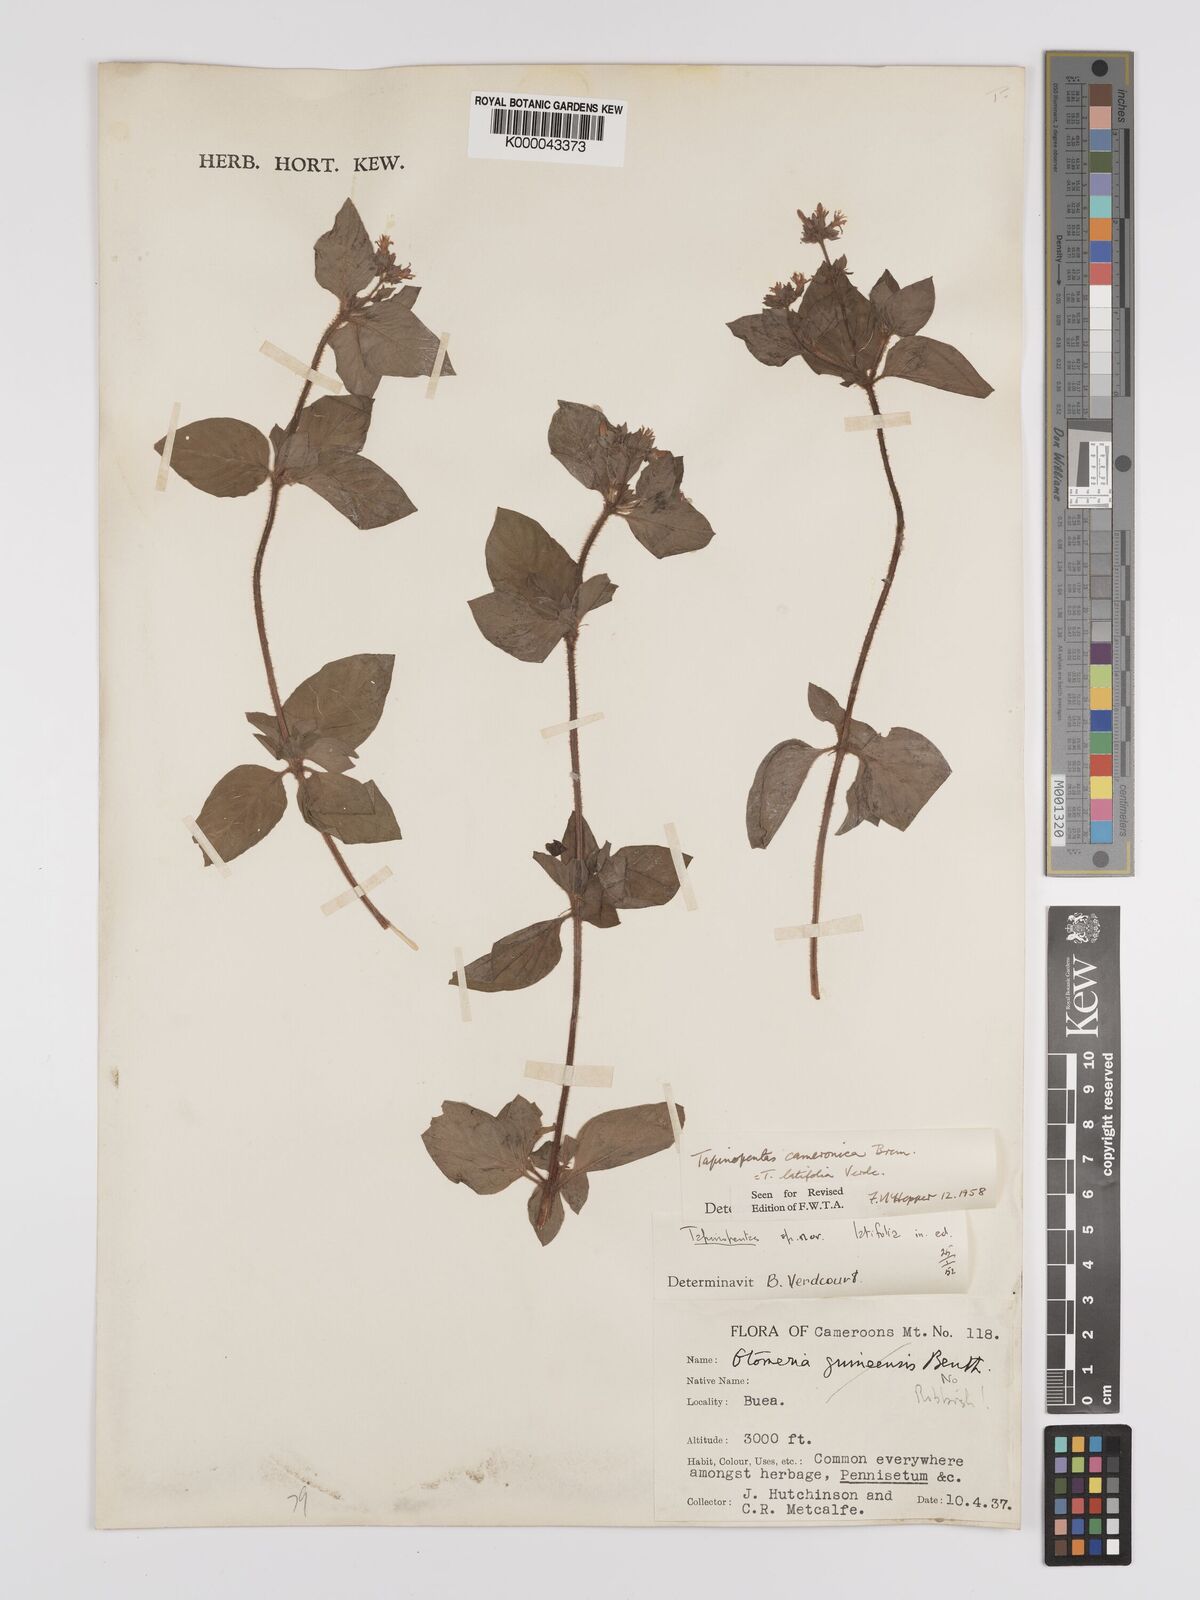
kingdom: Plantae
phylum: Tracheophyta
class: Magnoliopsida
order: Gentianales
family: Rubiaceae
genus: Otomeria
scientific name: Otomeria cameronica
